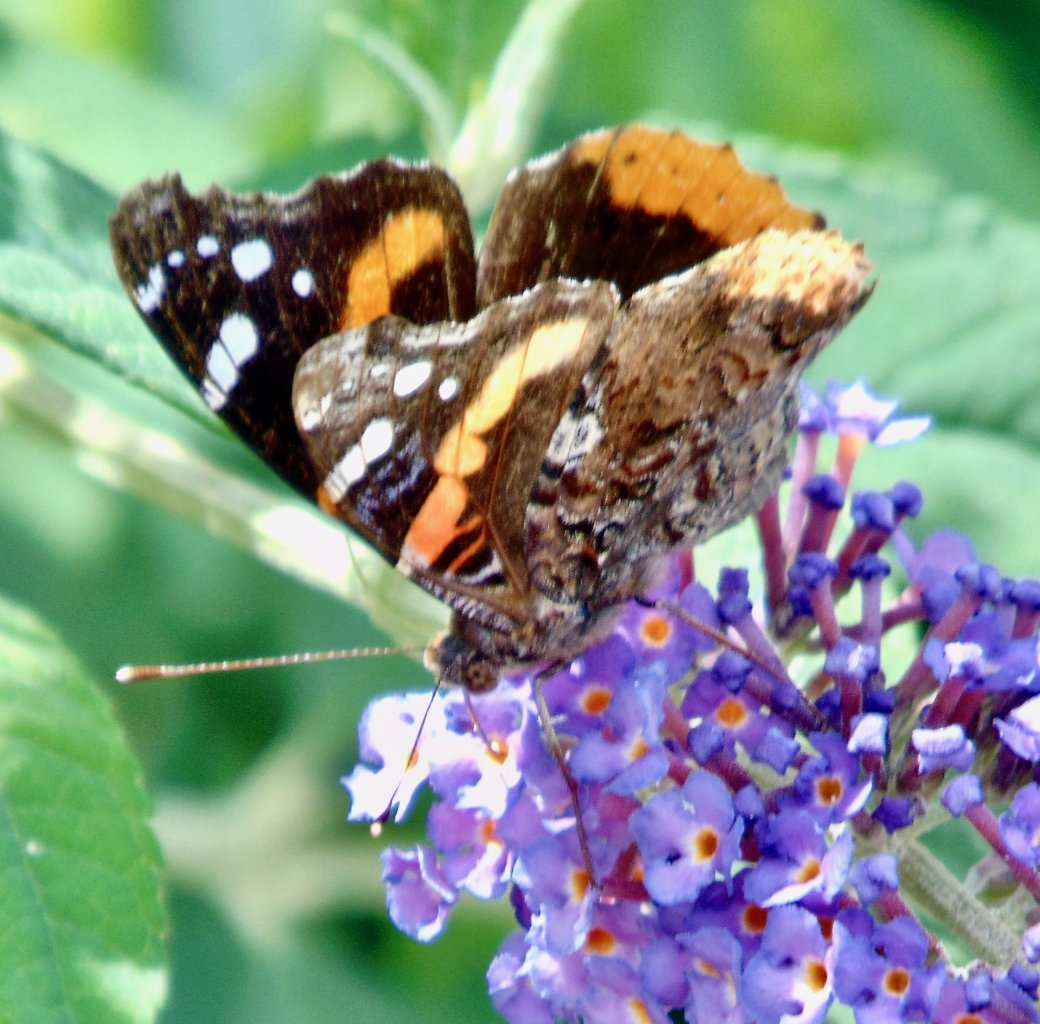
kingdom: Animalia
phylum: Arthropoda
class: Insecta
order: Lepidoptera
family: Nymphalidae
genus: Vanessa
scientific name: Vanessa atalanta
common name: Red Admiral
